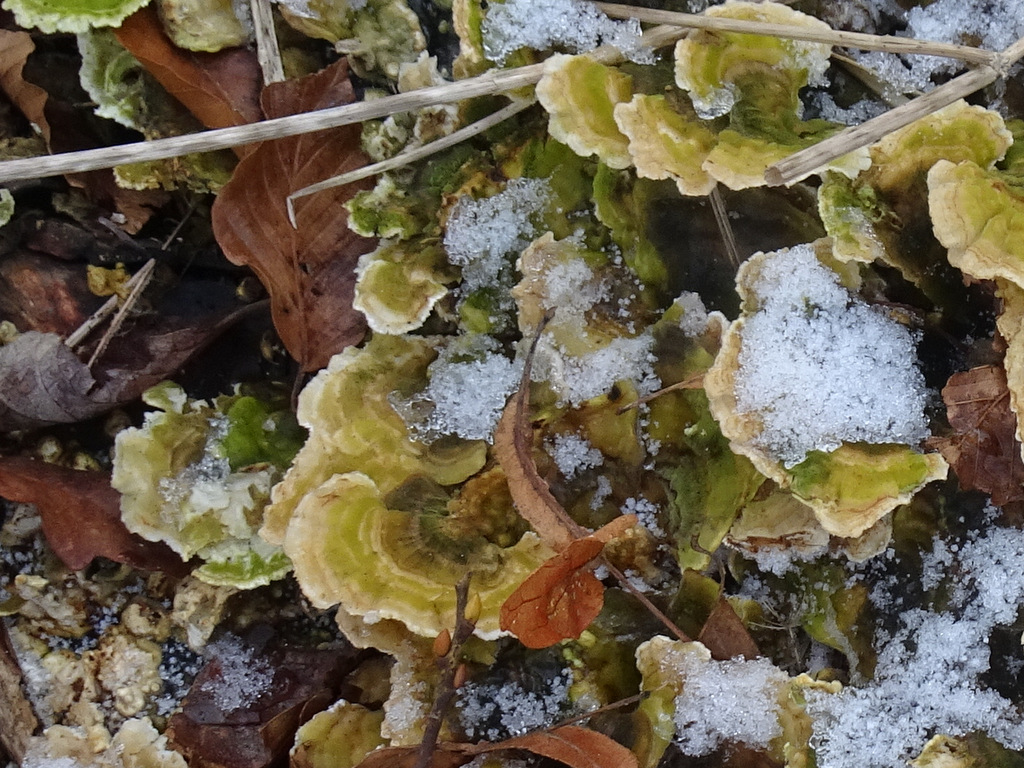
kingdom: Fungi
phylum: Basidiomycota
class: Agaricomycetes
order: Polyporales
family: Polyporaceae
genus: Trametes
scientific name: Trametes versicolor
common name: broget læderporesvamp
